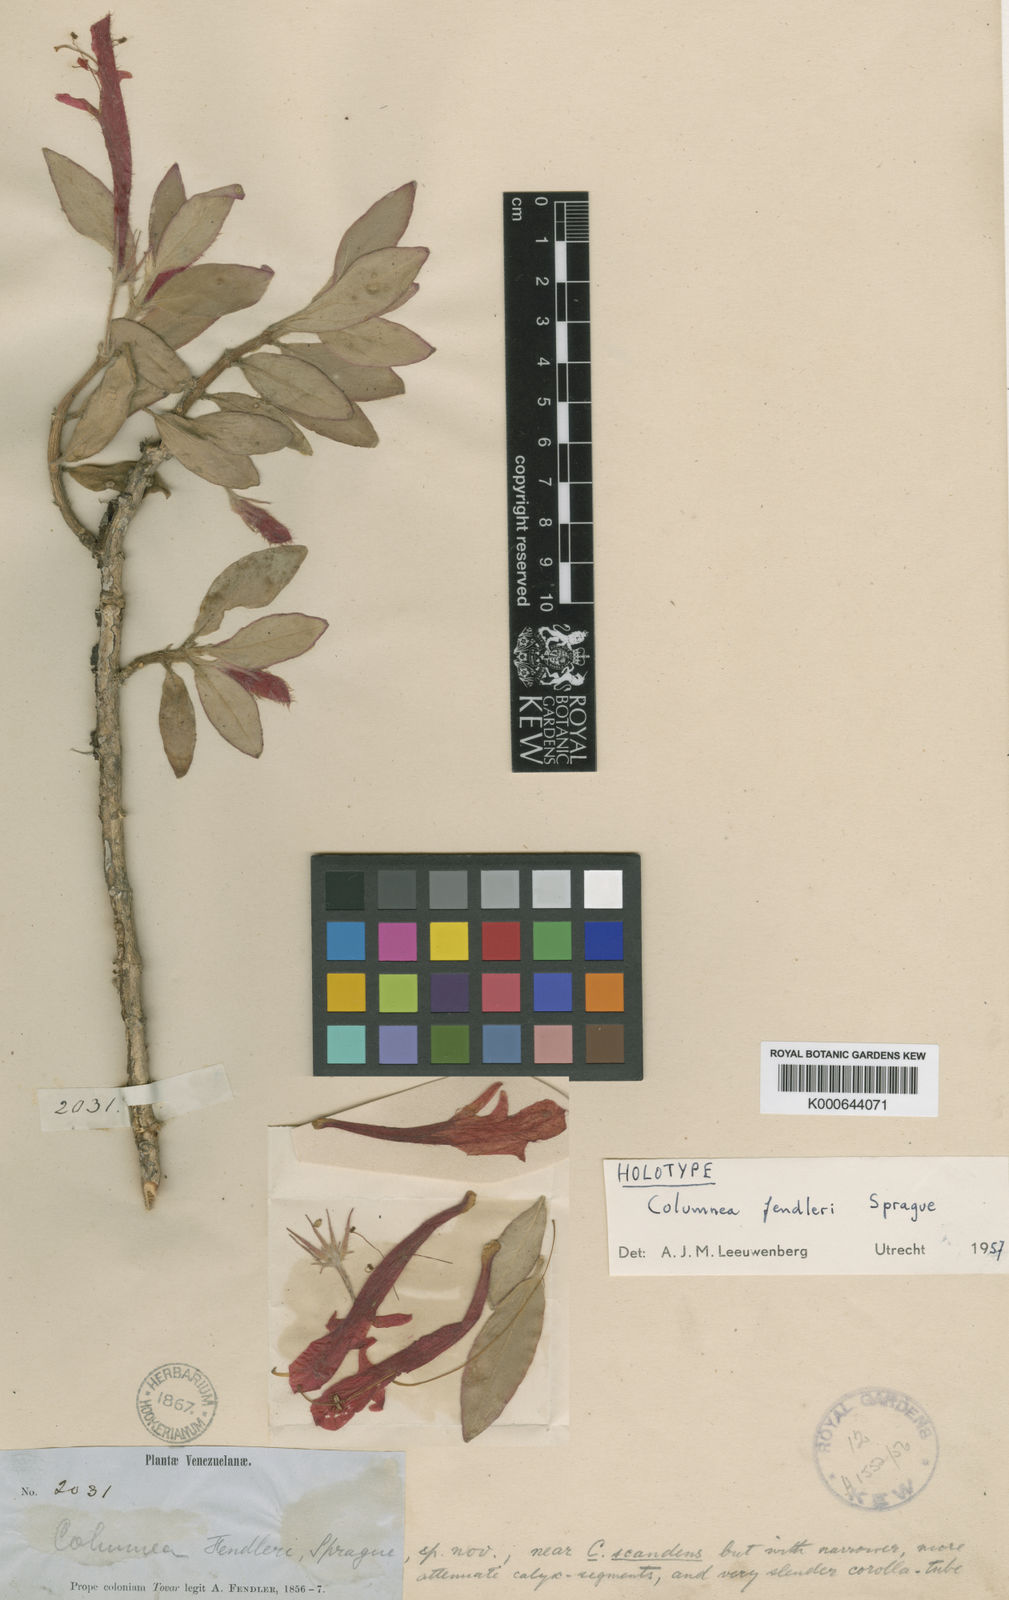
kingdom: Plantae
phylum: Tracheophyta
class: Magnoliopsida
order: Lamiales
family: Gesneriaceae
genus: Columnea
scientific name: Columnea scandens
